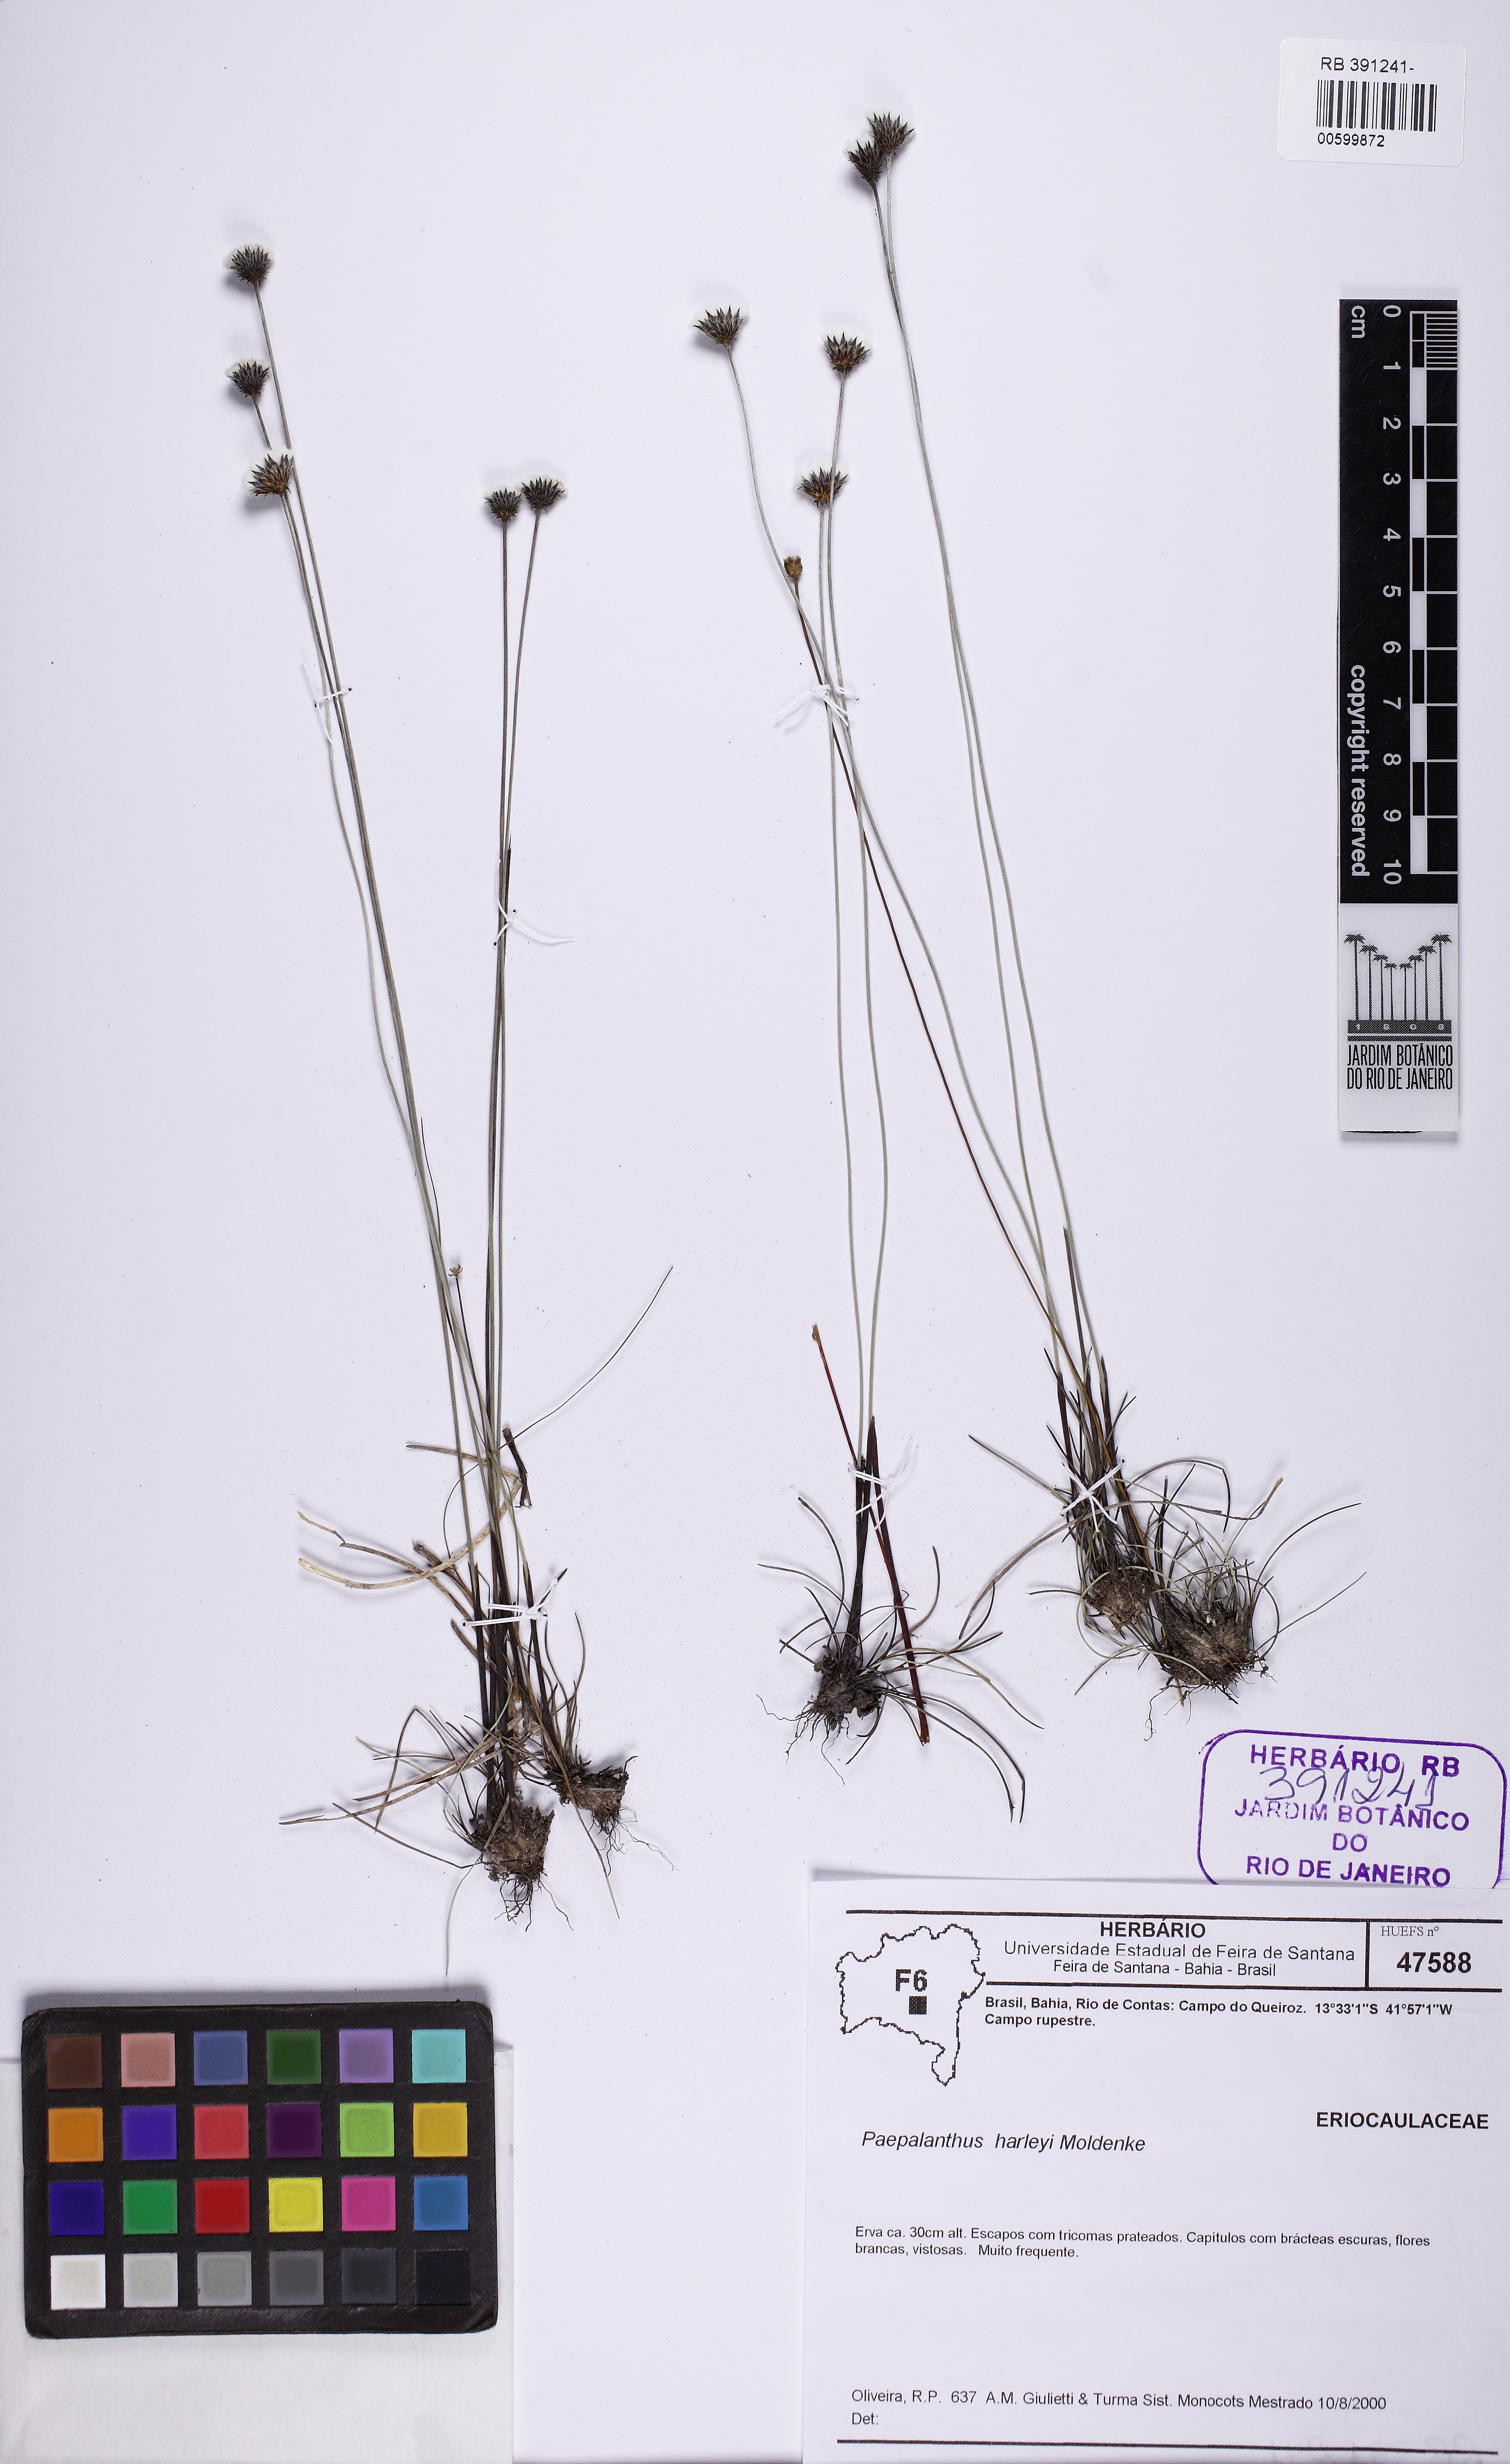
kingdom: Plantae
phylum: Tracheophyta
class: Liliopsida
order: Poales
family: Eriocaulaceae
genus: Paepalanthus
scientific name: Paepalanthus harleyi
